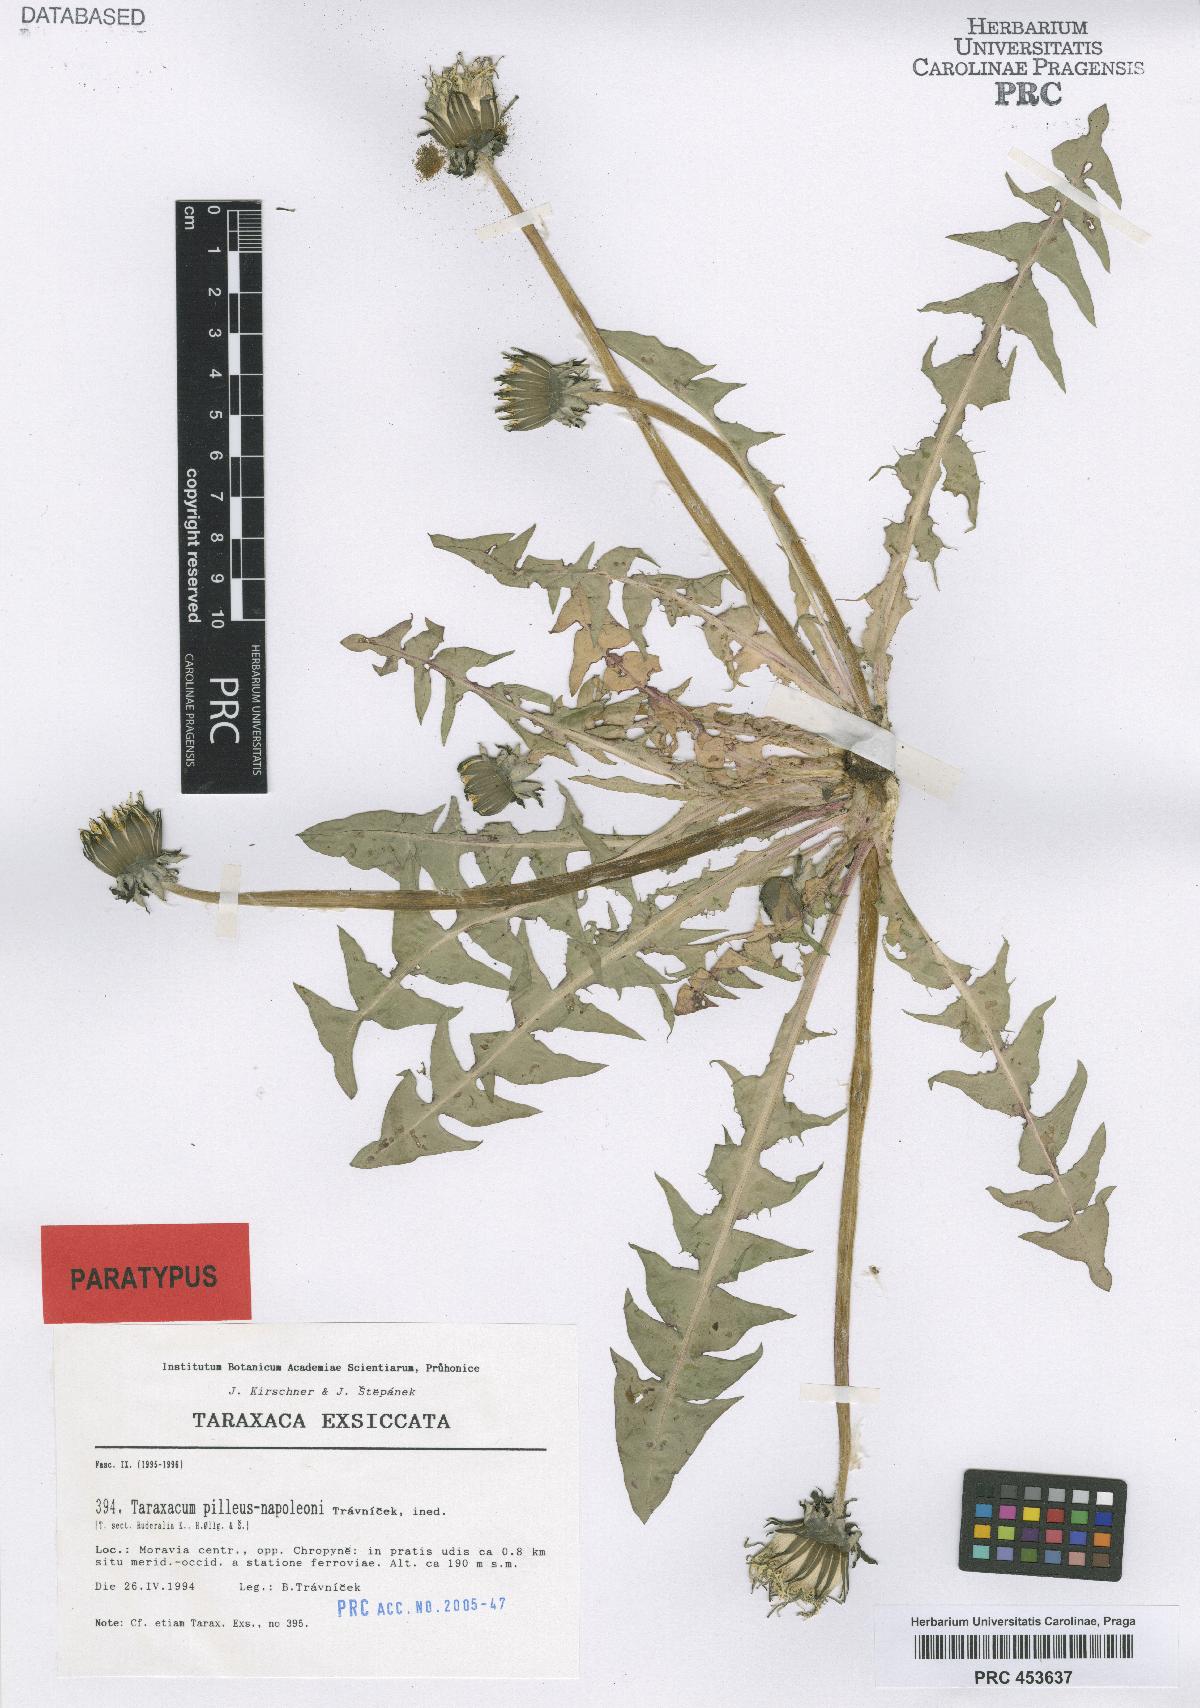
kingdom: Plantae
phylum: Tracheophyta
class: Magnoliopsida
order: Asterales
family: Asteraceae
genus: Taraxacum
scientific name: Taraxacum crassum
